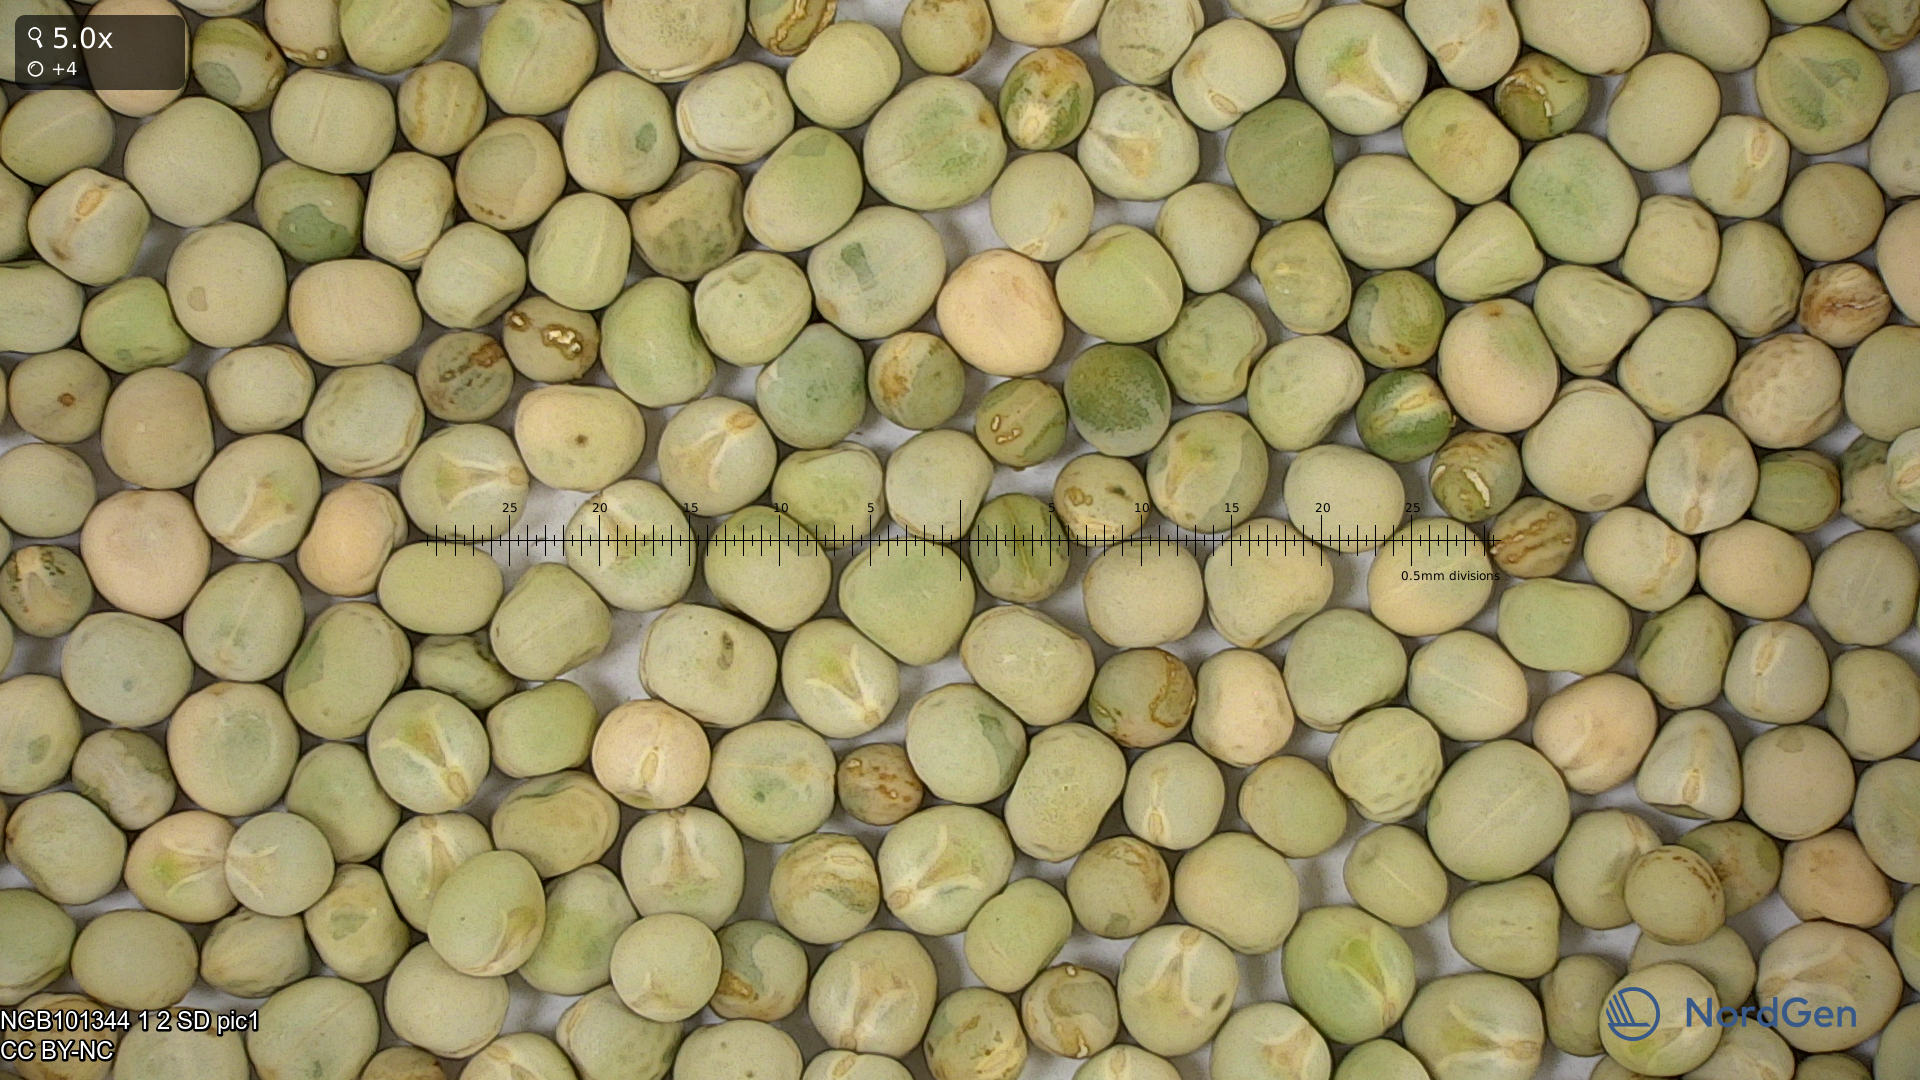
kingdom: Plantae
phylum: Tracheophyta
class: Magnoliopsida
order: Fabales
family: Fabaceae
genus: Lathyrus
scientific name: Lathyrus oleraceus
